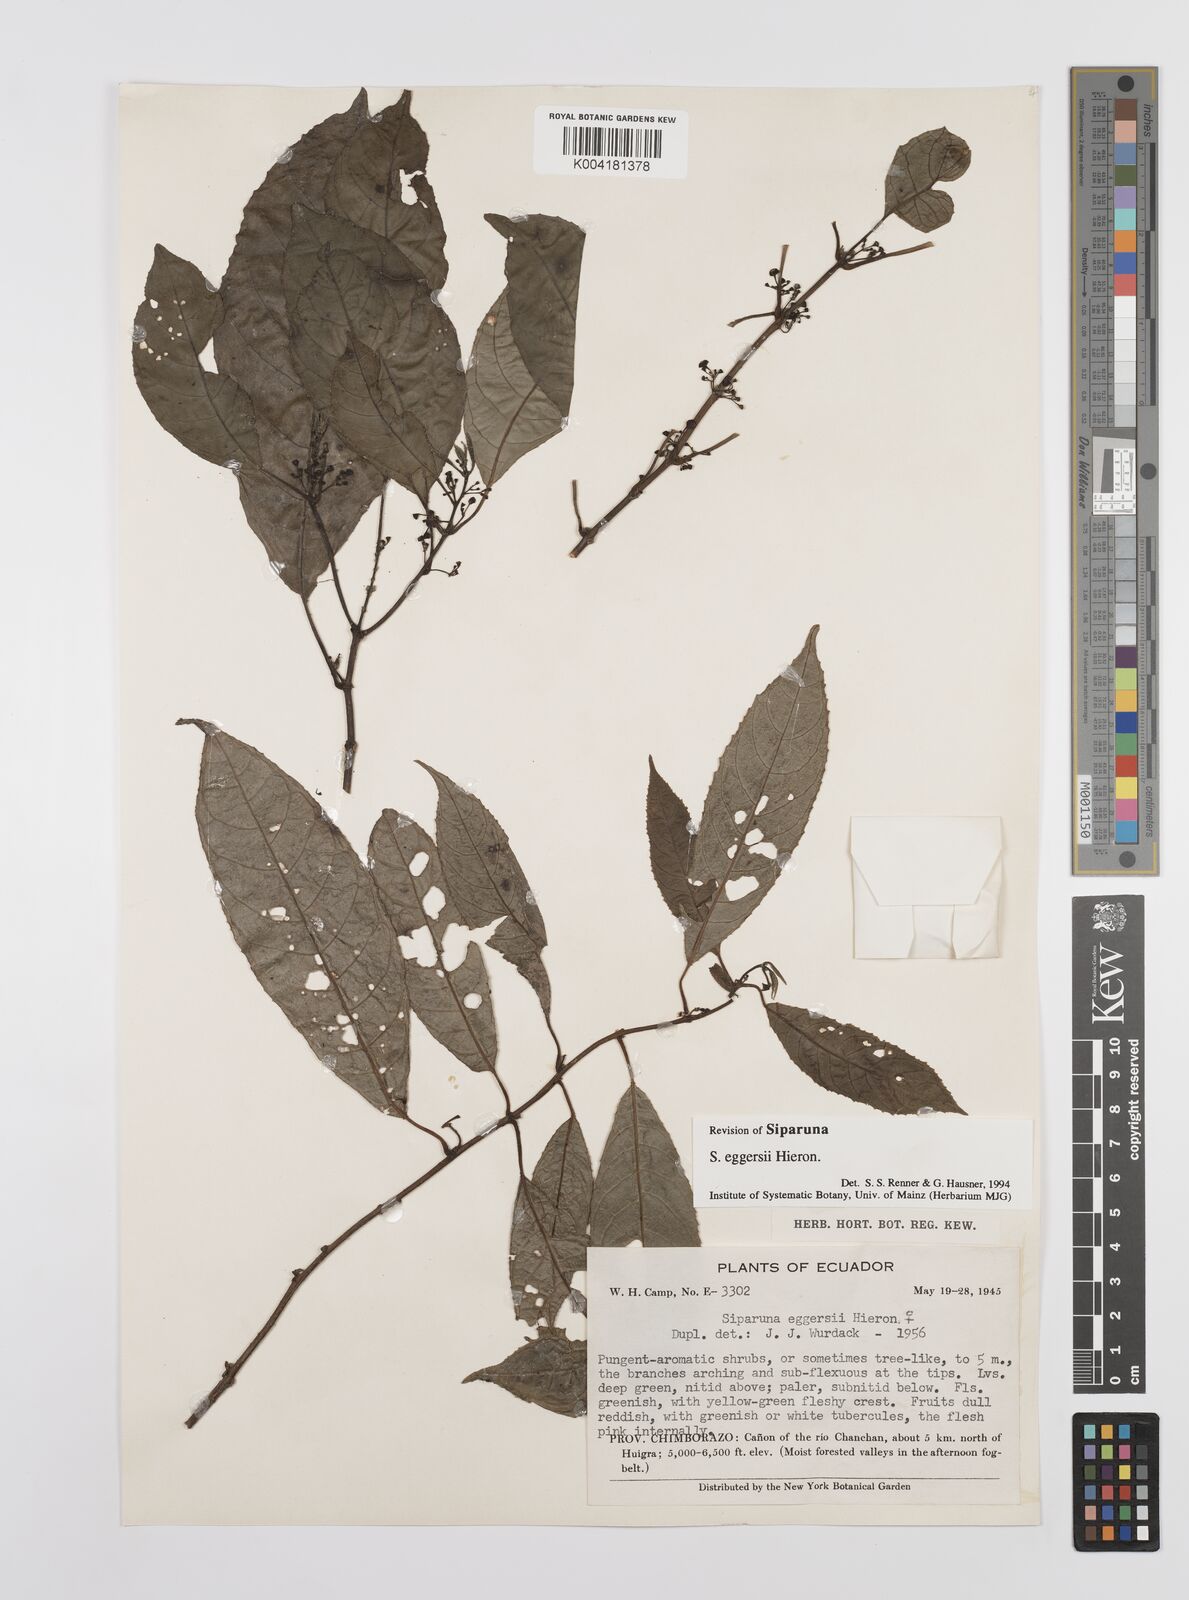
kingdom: Plantae
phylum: Tracheophyta
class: Magnoliopsida
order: Laurales
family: Siparunaceae
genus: Siparuna
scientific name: Siparuna eggersii
